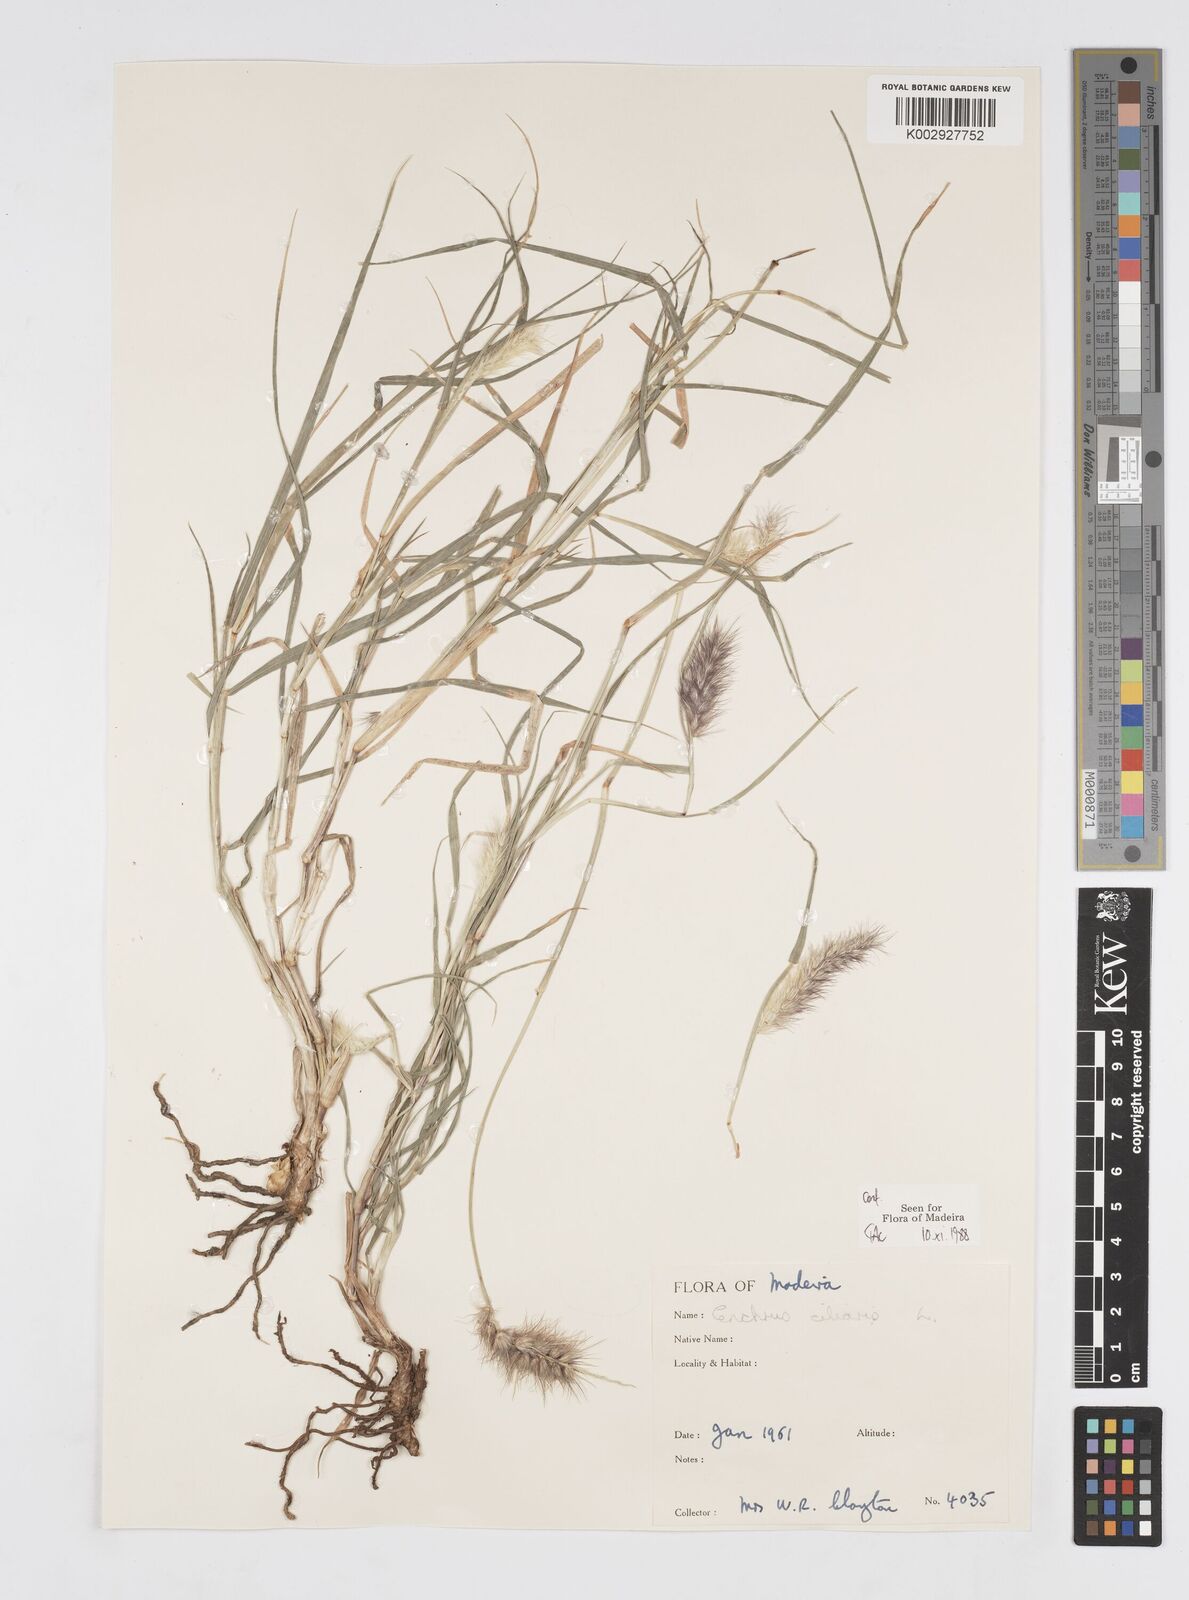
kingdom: Plantae
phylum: Tracheophyta
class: Liliopsida
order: Poales
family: Poaceae
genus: Cenchrus
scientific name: Cenchrus ciliaris
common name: Buffelgrass
